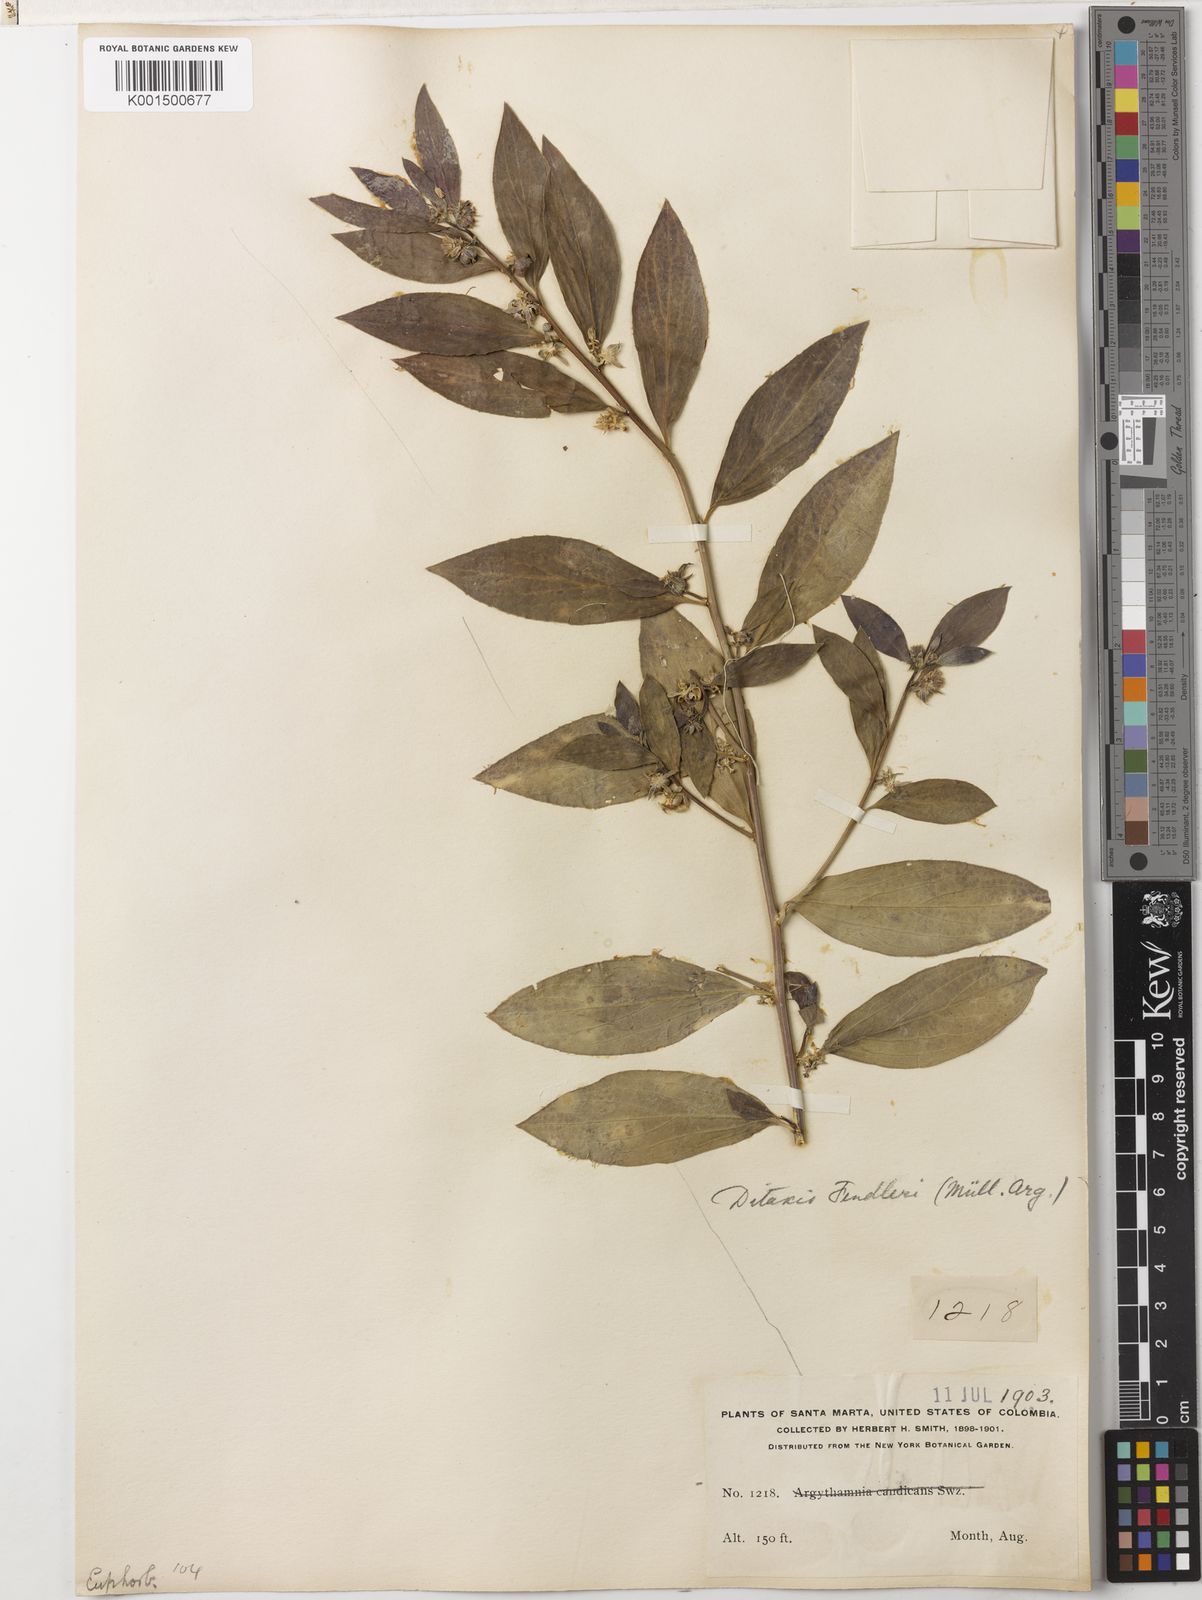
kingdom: Plantae
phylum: Tracheophyta
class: Magnoliopsida
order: Malpighiales
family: Euphorbiaceae
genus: Ditaxis
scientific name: Ditaxis argothamnoides
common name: Blodgett's silverbush
